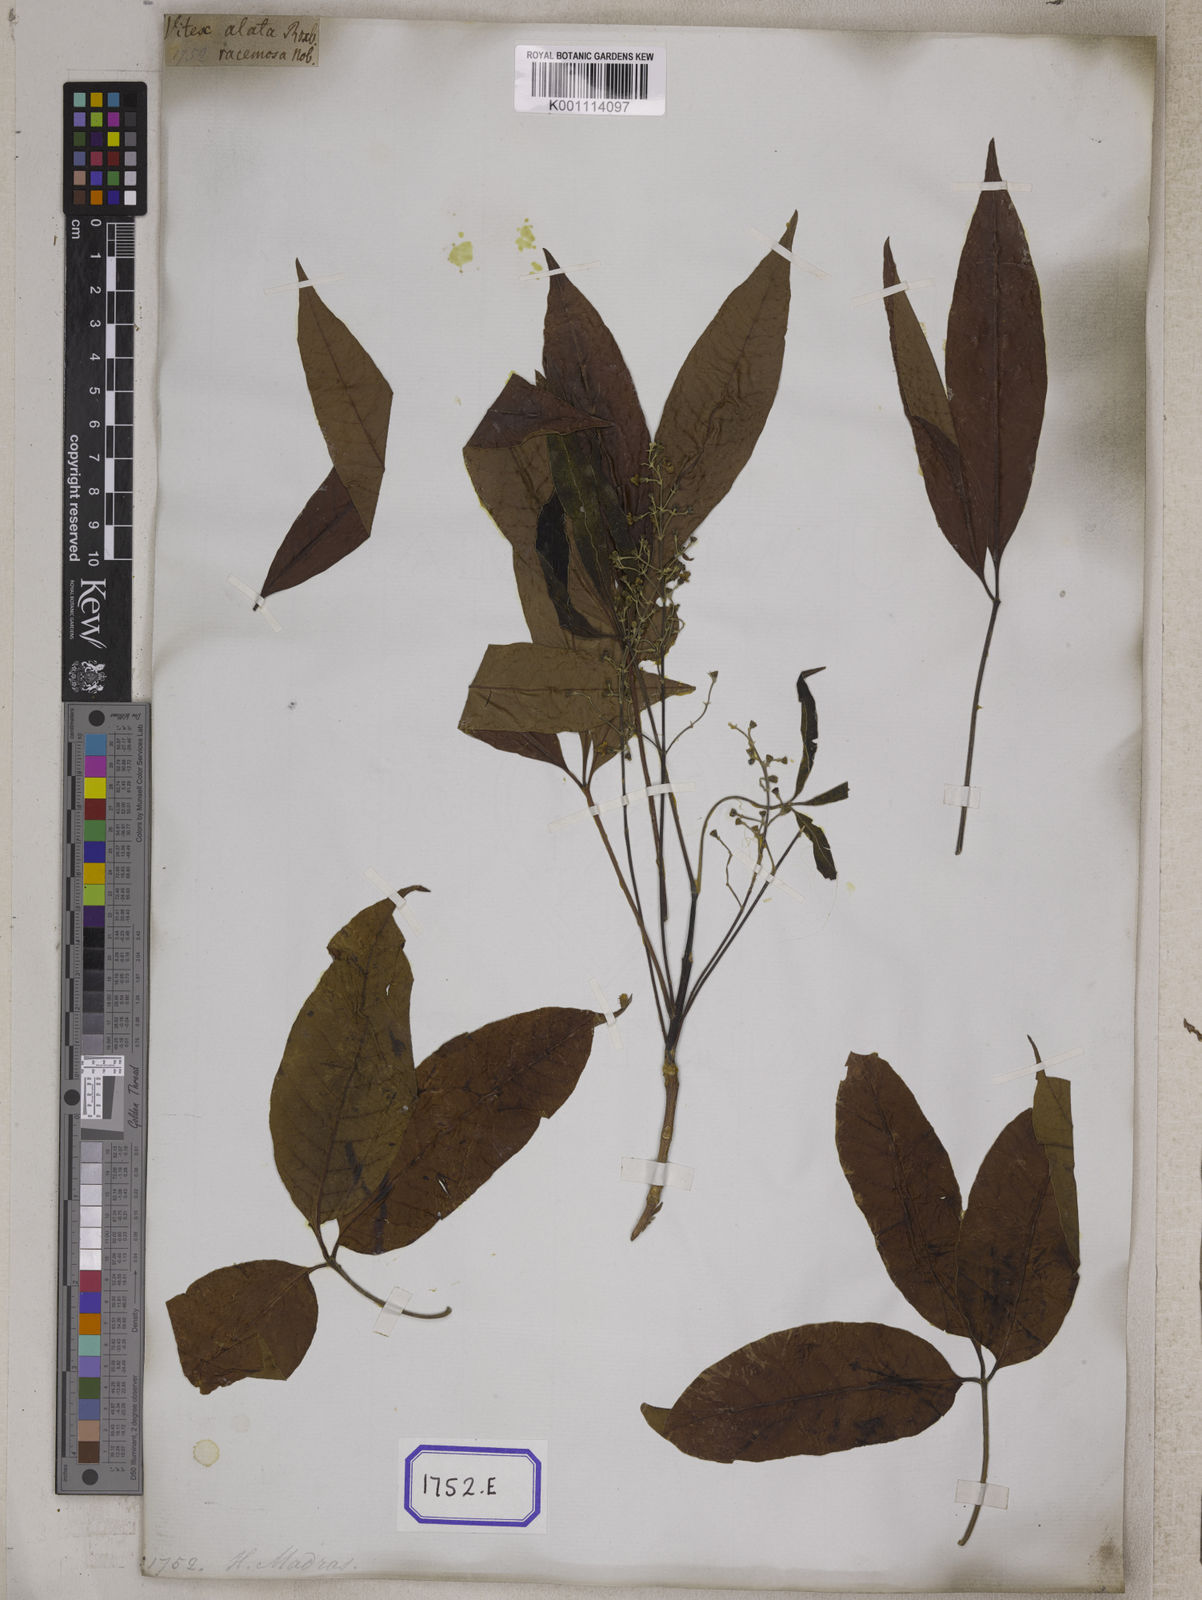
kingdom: Plantae
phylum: Tracheophyta
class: Magnoliopsida
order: Lamiales
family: Lamiaceae
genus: Vitex
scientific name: Vitex peduncularis
